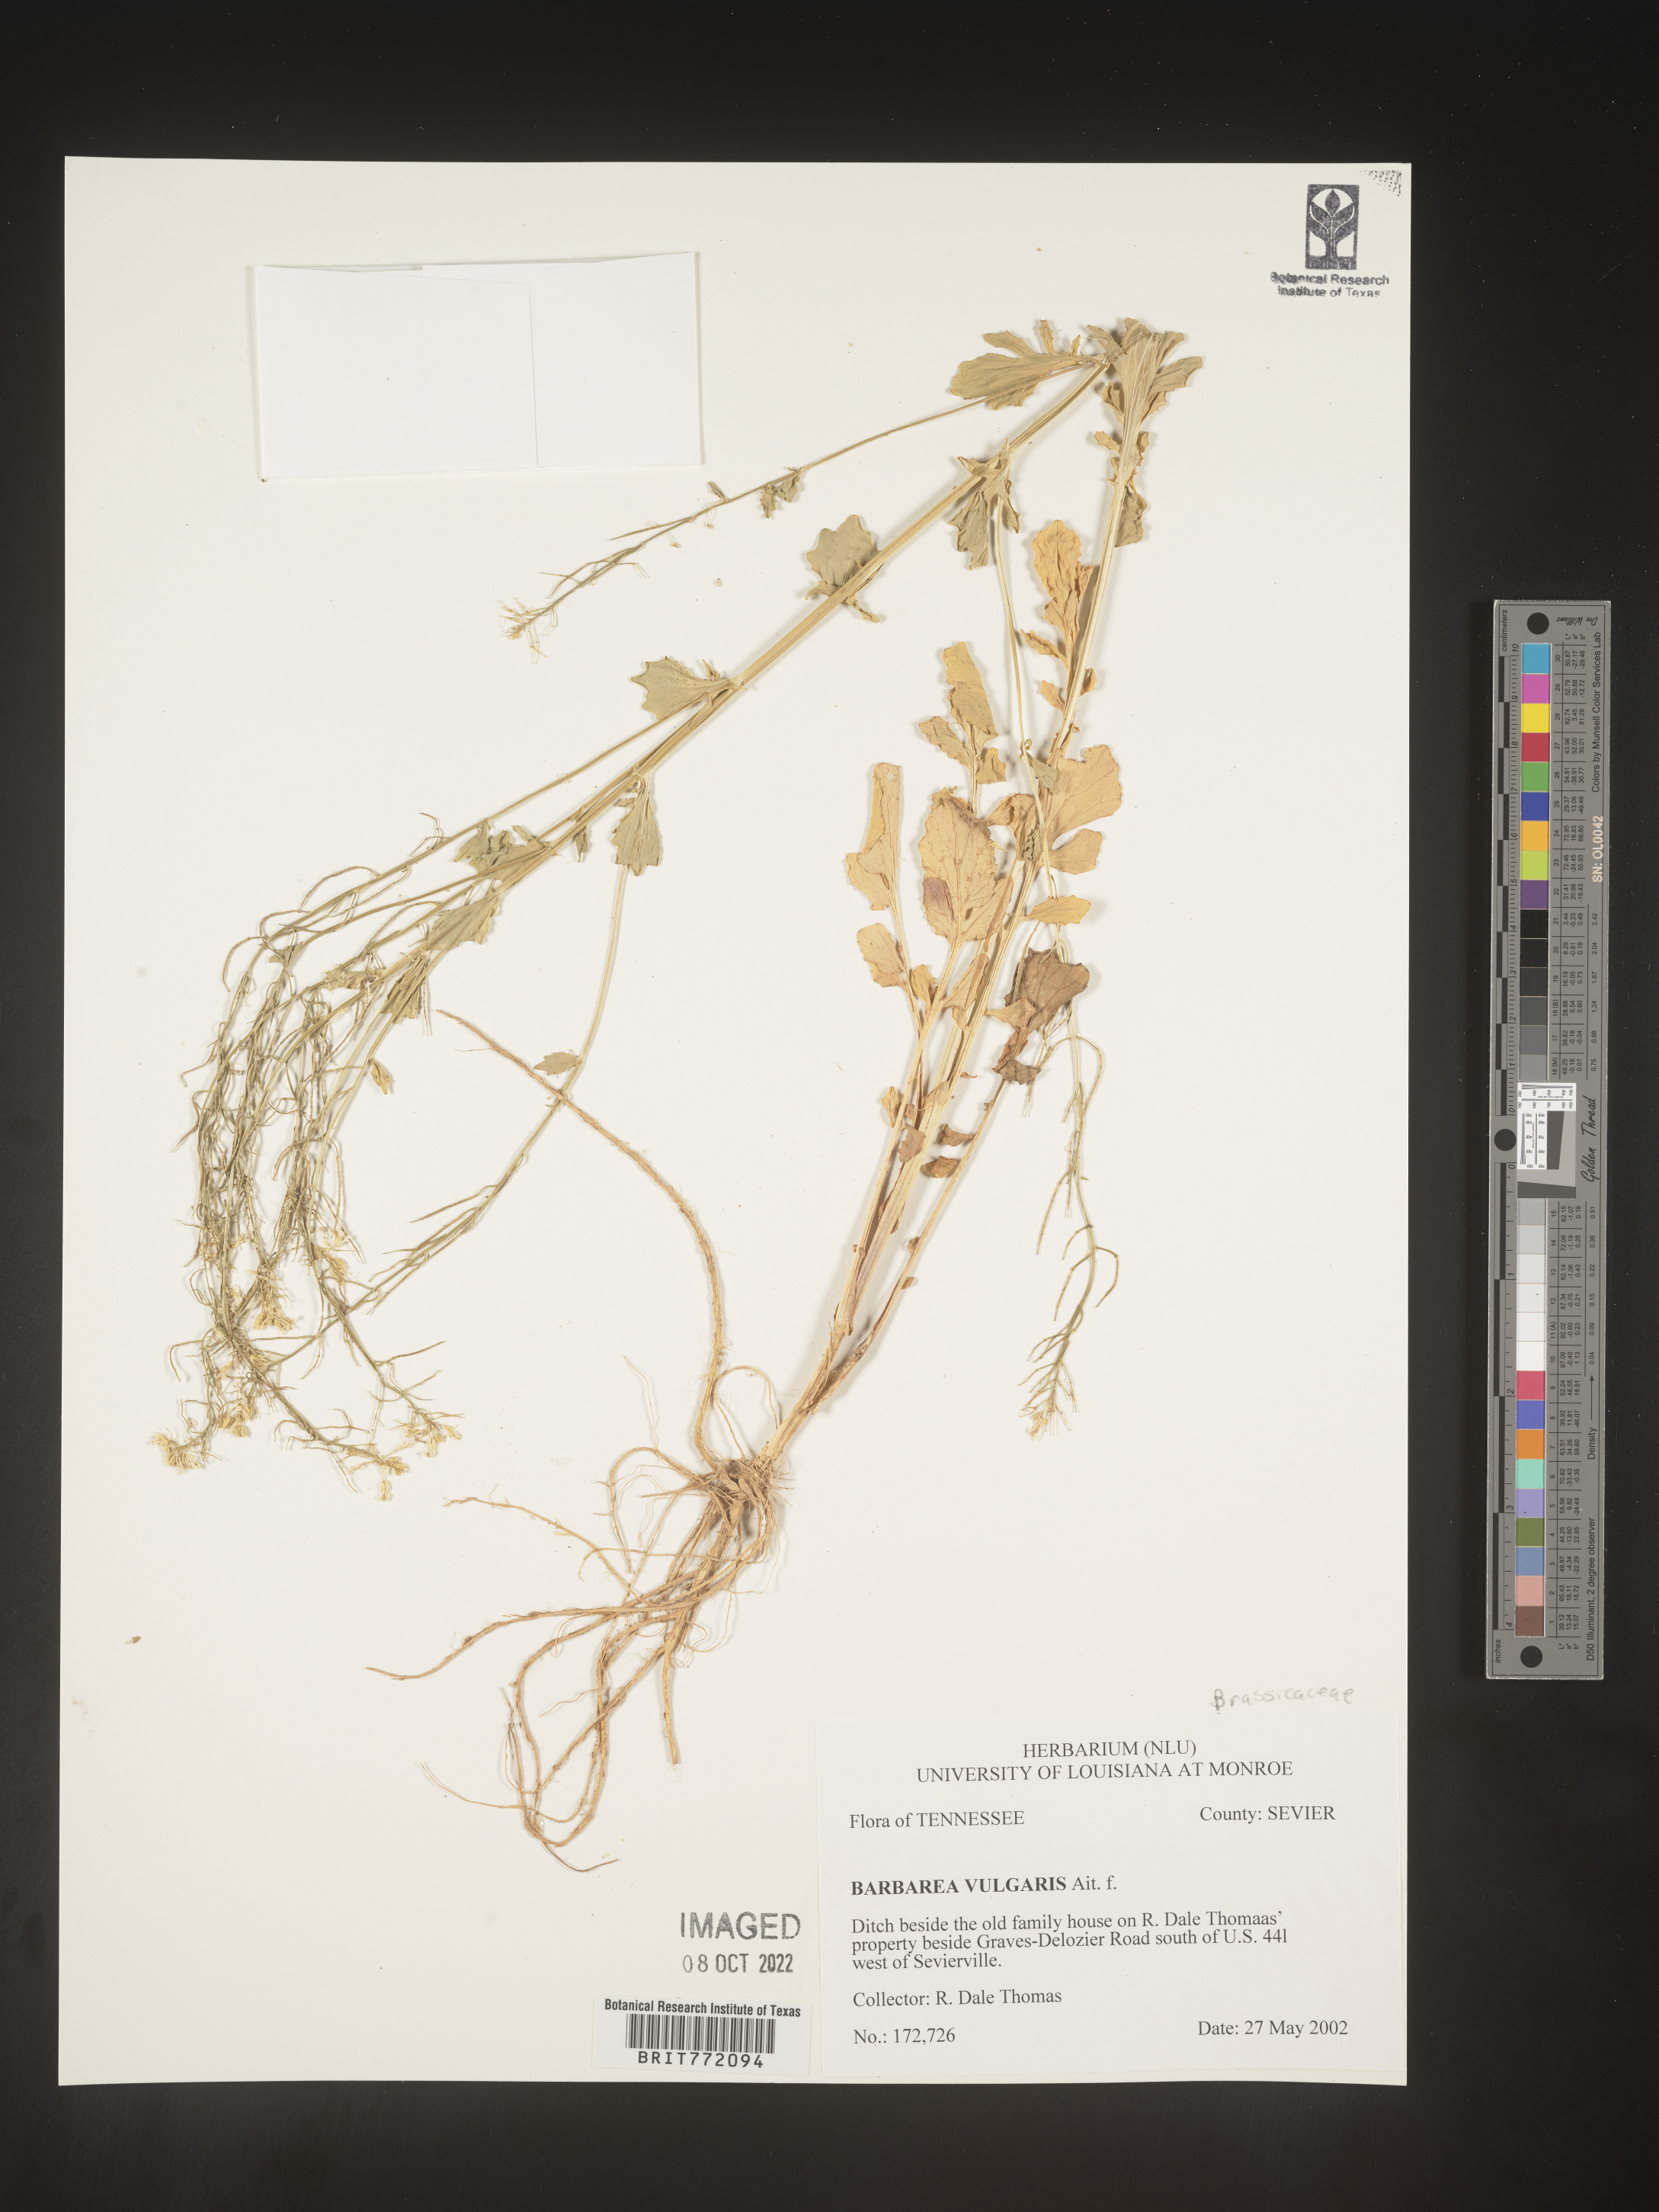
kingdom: Plantae
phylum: Tracheophyta
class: Magnoliopsida
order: Brassicales
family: Brassicaceae
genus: Barbarea
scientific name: Barbarea vulgaris
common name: Cressy-greens
